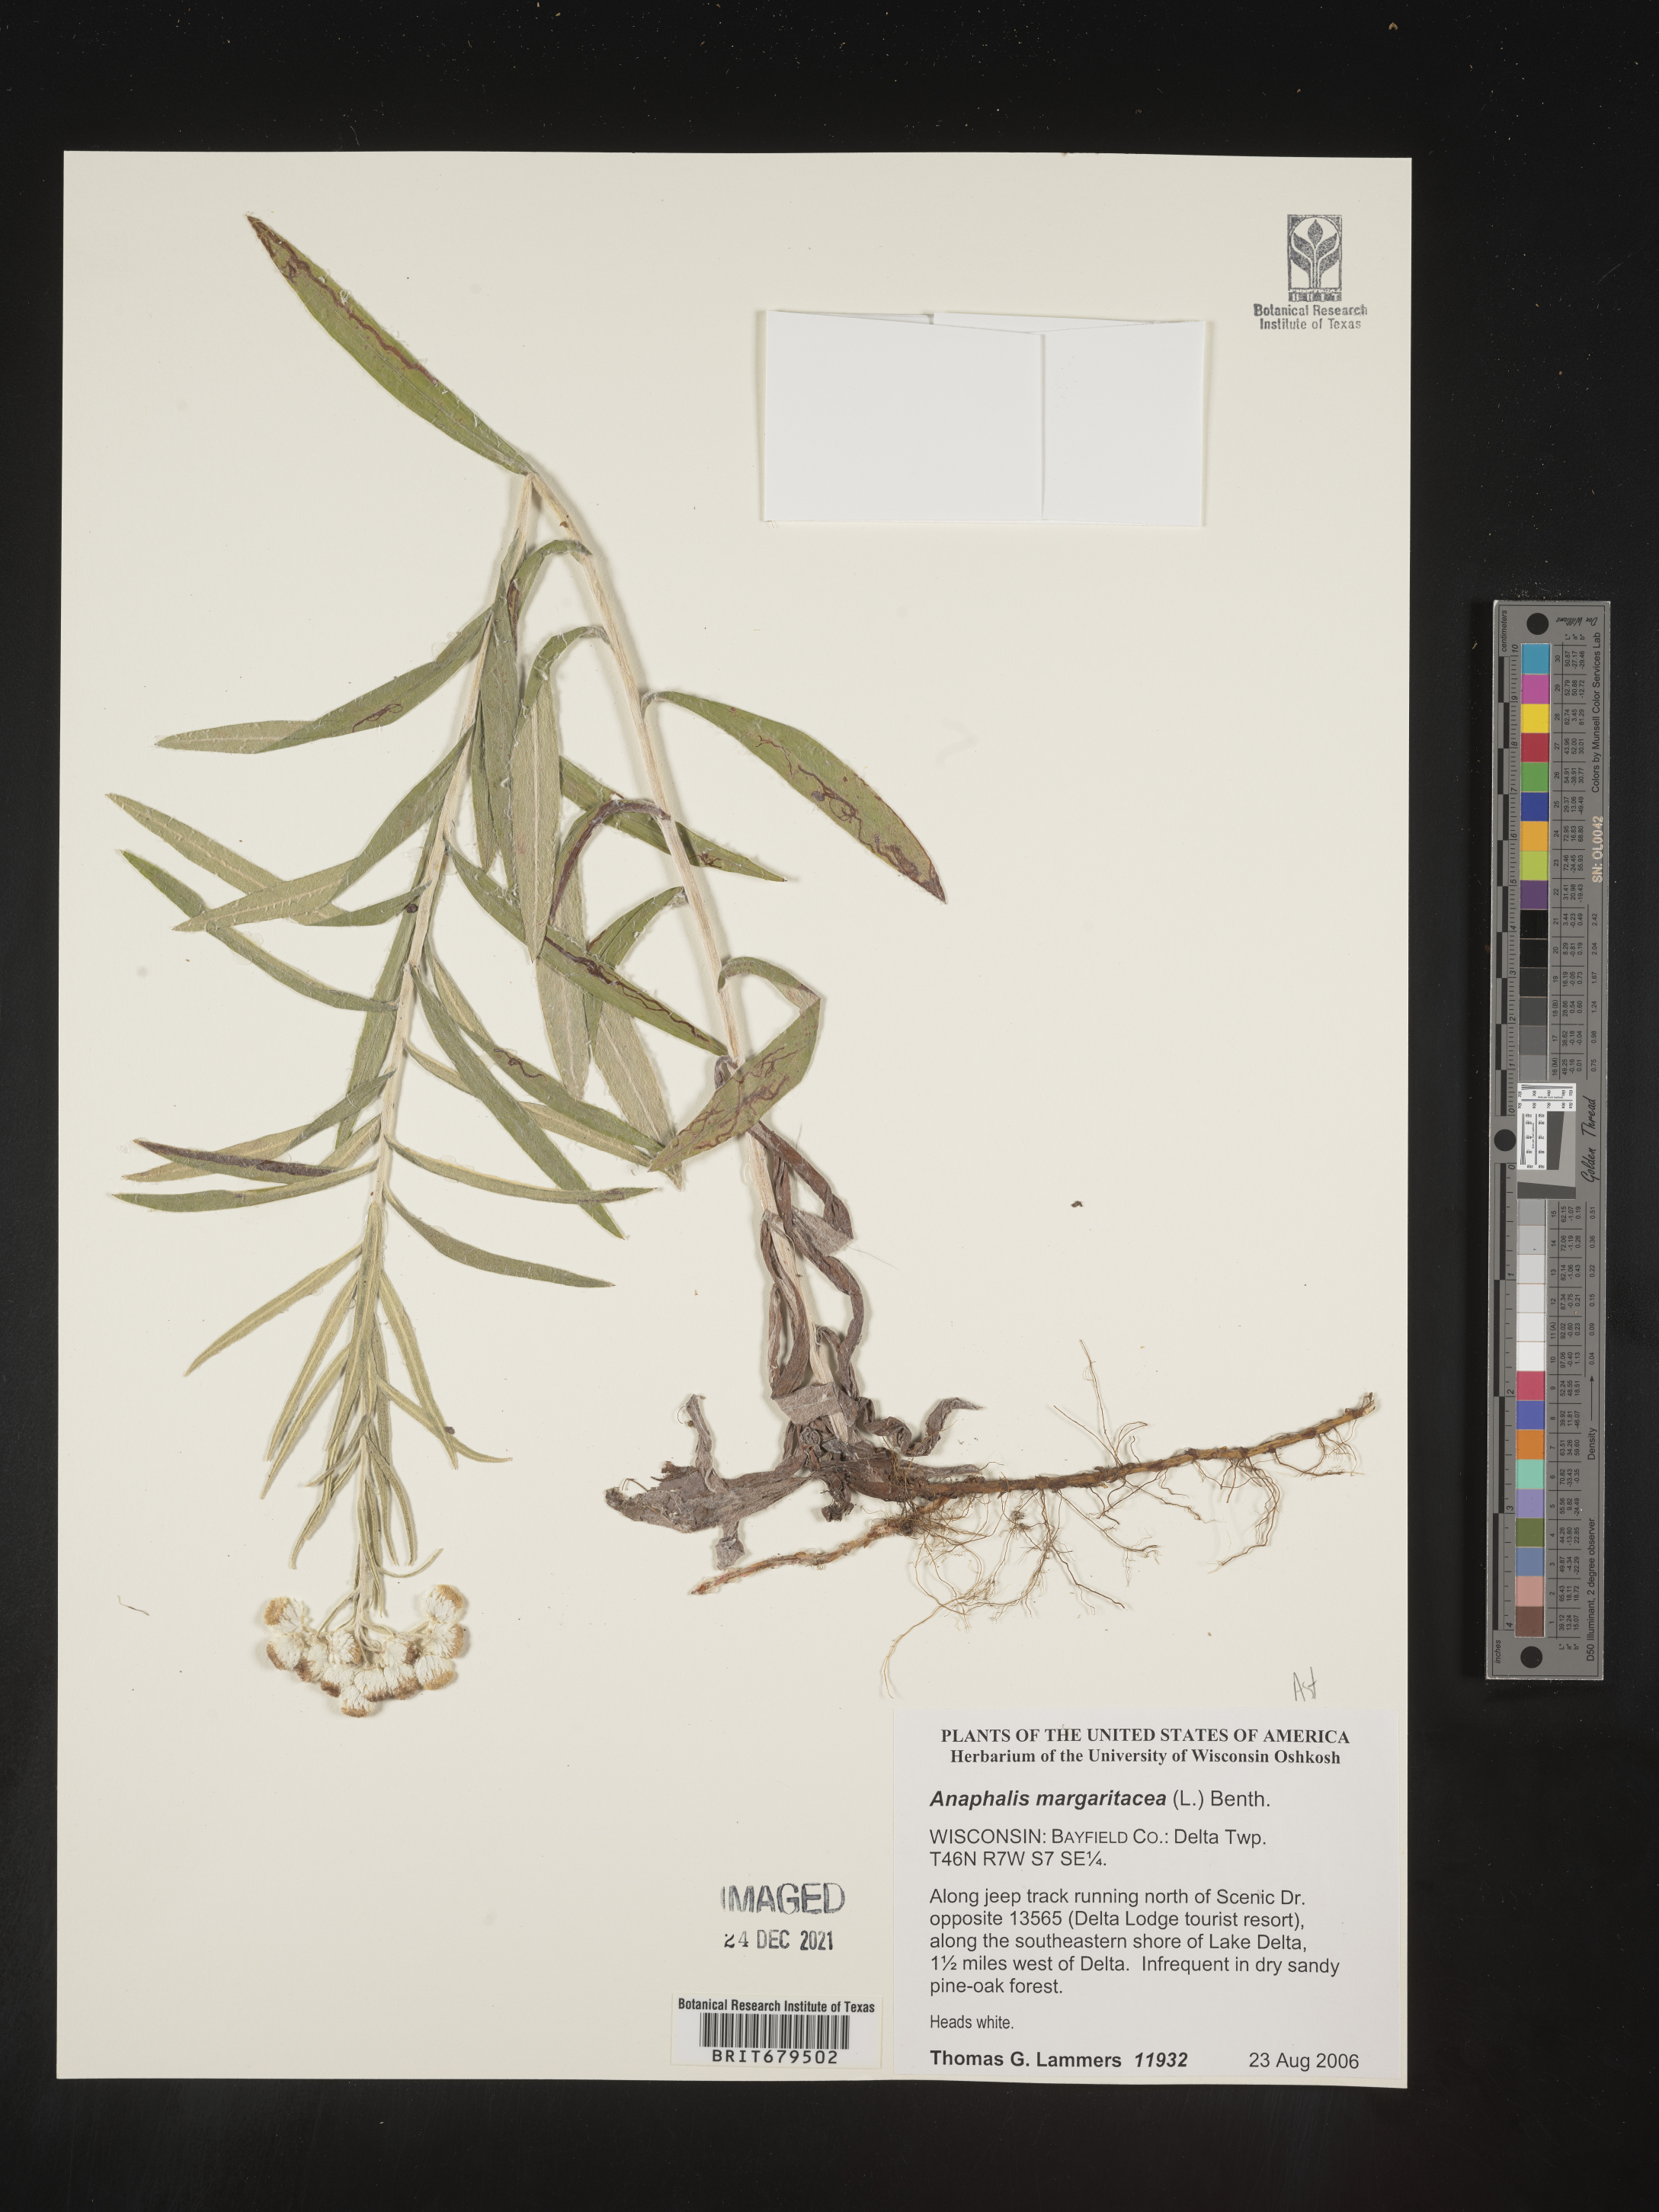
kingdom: Plantae
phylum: Tracheophyta
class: Magnoliopsida
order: Asterales
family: Asteraceae
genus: Anaphalis
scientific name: Anaphalis margaritacea
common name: Pearly everlasting
